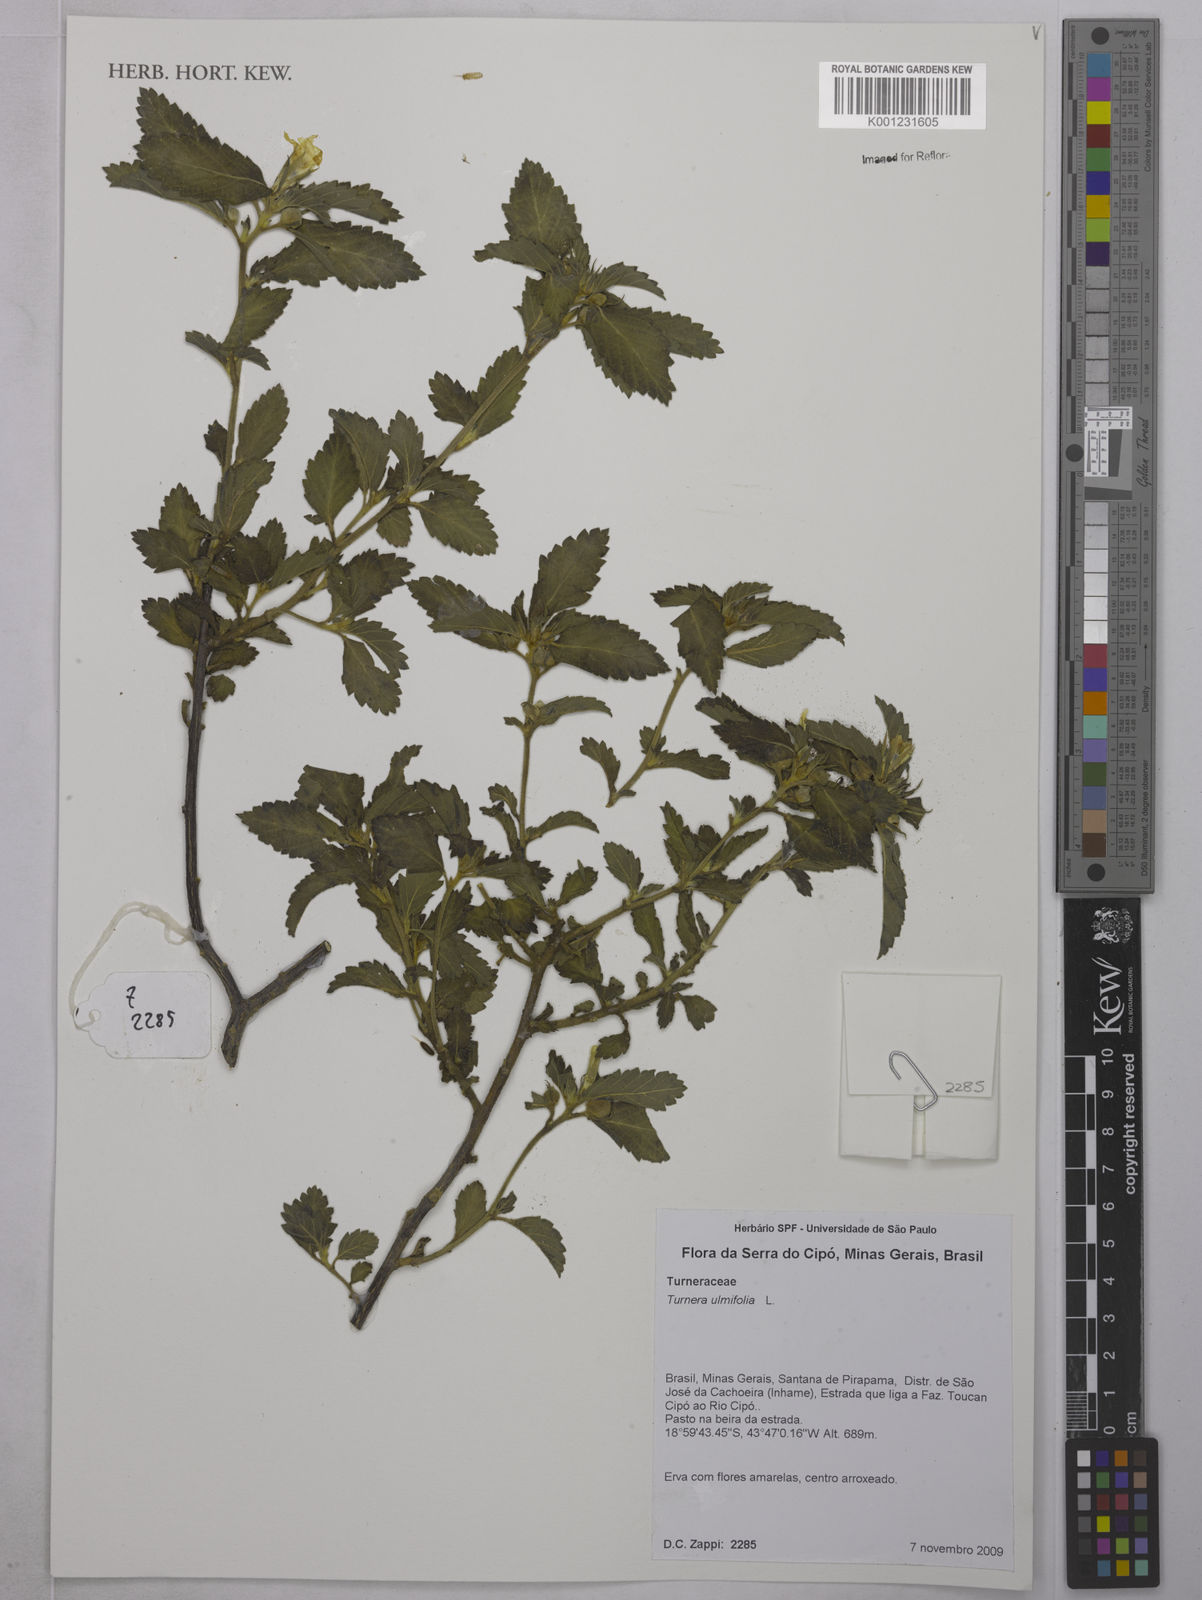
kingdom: Plantae
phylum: Tracheophyta
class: Magnoliopsida
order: Malpighiales
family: Turneraceae
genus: Turnera
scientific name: Turnera ulmifolia
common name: Ramgoat dashalong
